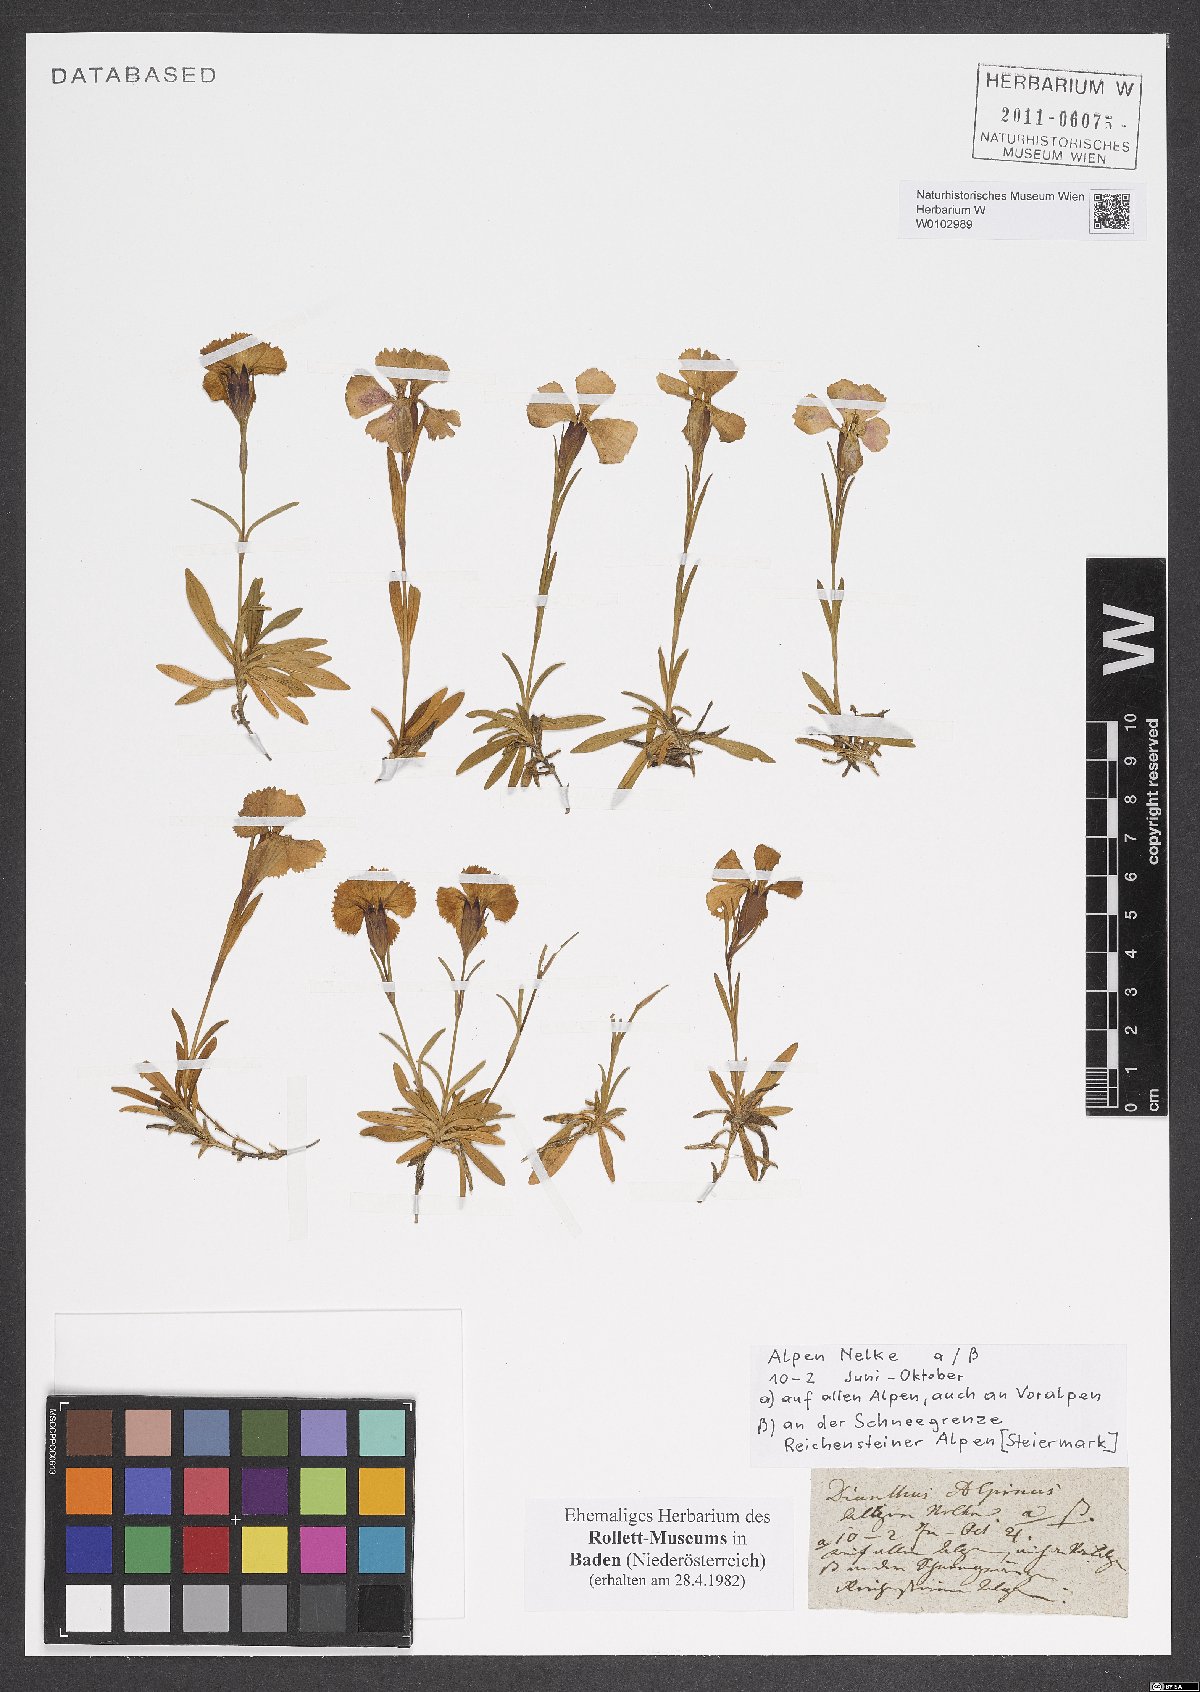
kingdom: Plantae
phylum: Tracheophyta
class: Magnoliopsida
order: Caryophyllales
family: Caryophyllaceae
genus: Dianthus
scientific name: Dianthus alpinus
